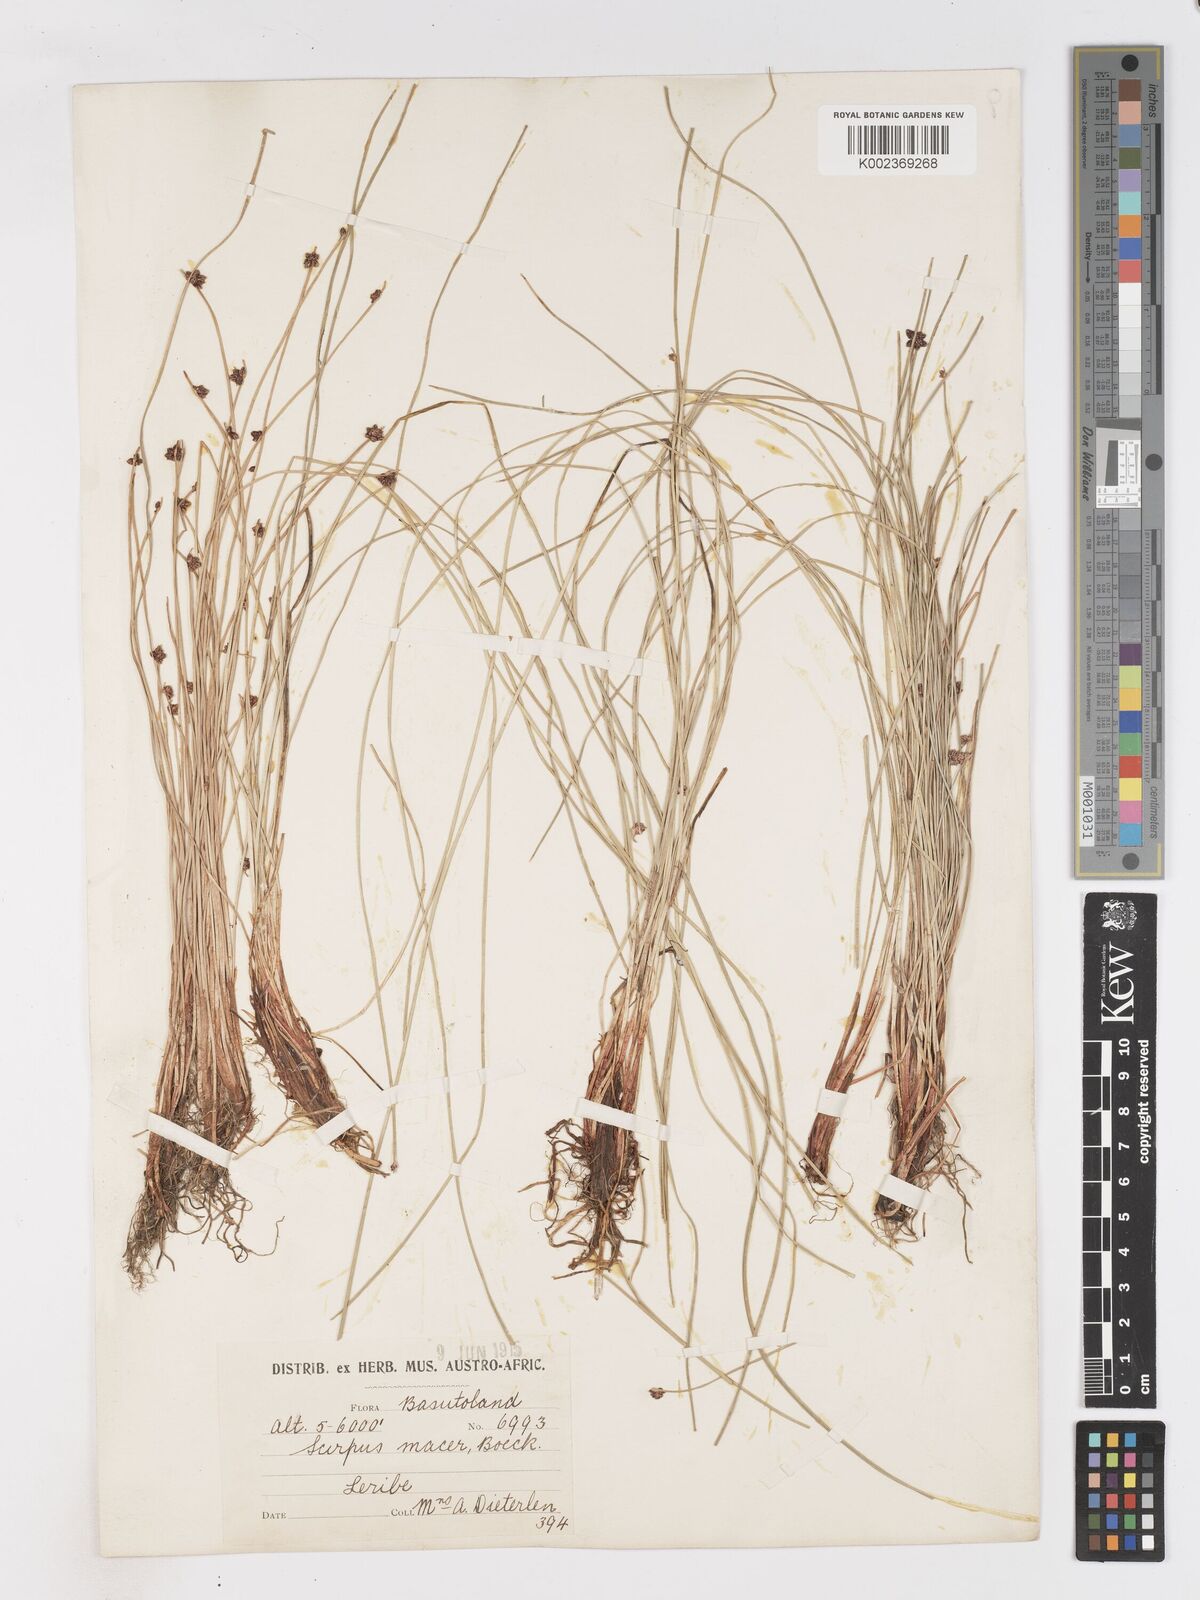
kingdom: Plantae
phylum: Tracheophyta
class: Liliopsida
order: Poales
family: Cyperaceae
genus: Isolepis
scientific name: Isolepis costata
